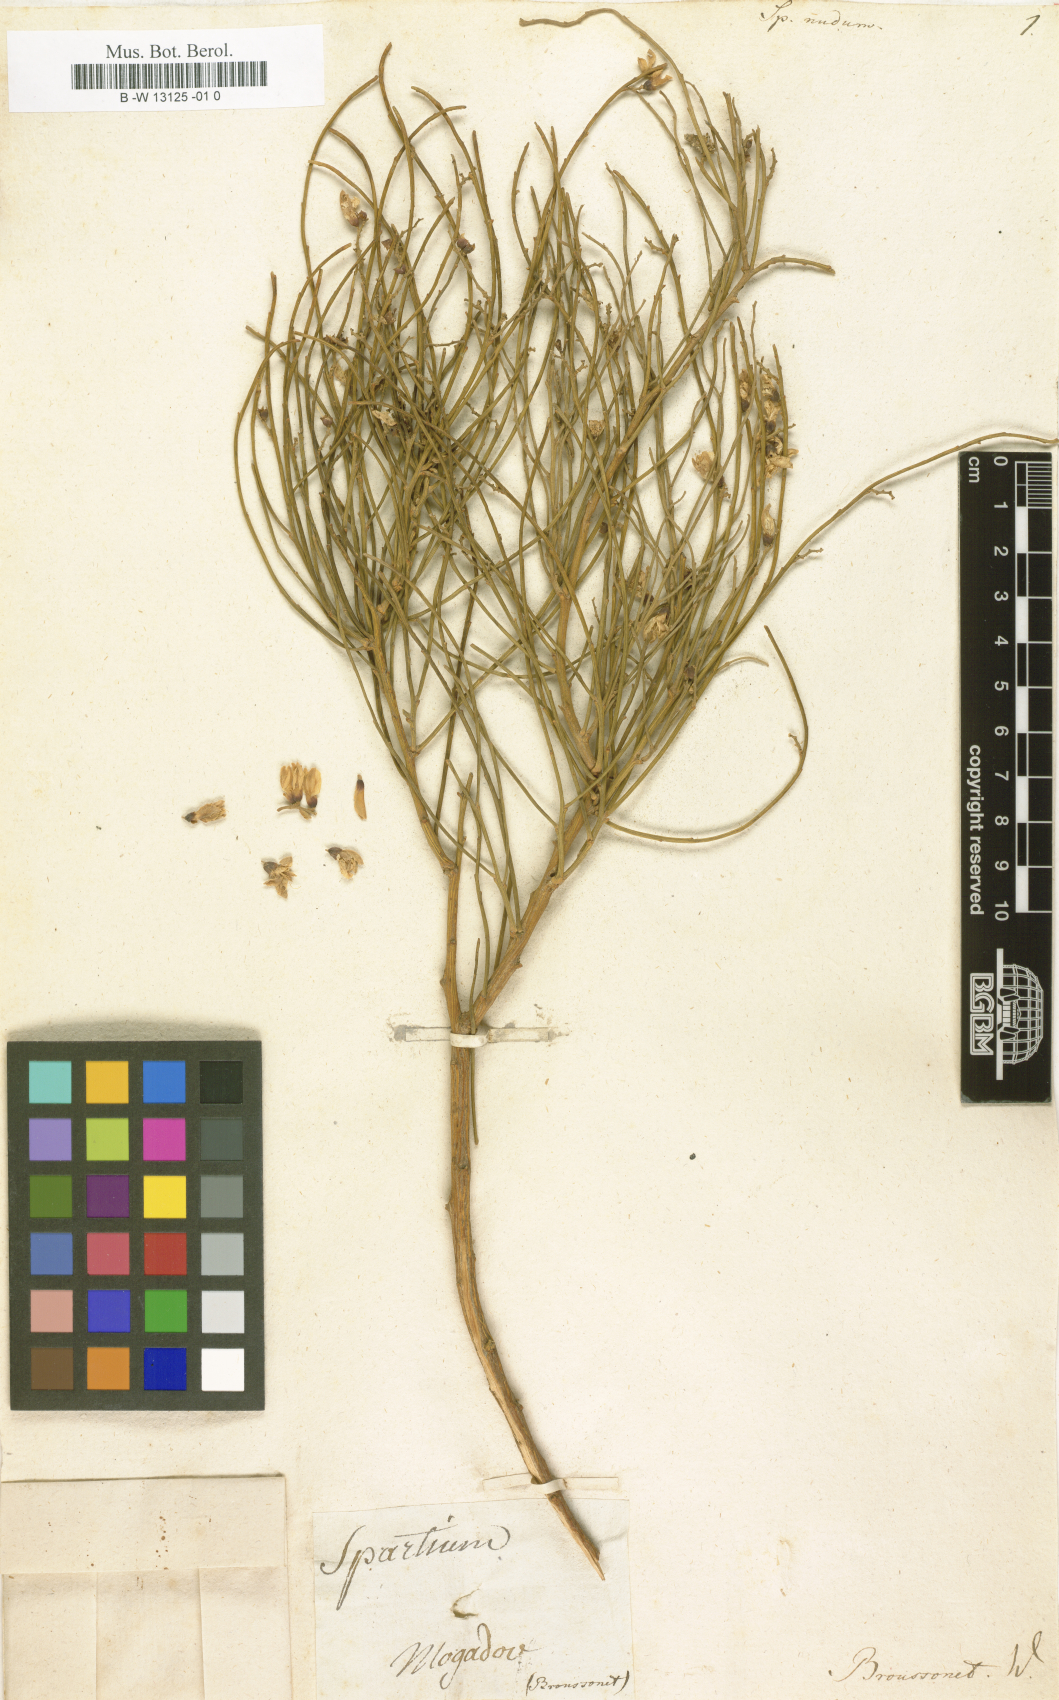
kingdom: Plantae
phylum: Tracheophyta
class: Magnoliopsida
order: Fabales
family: Fabaceae
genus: Spartium
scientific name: Spartium nudum
